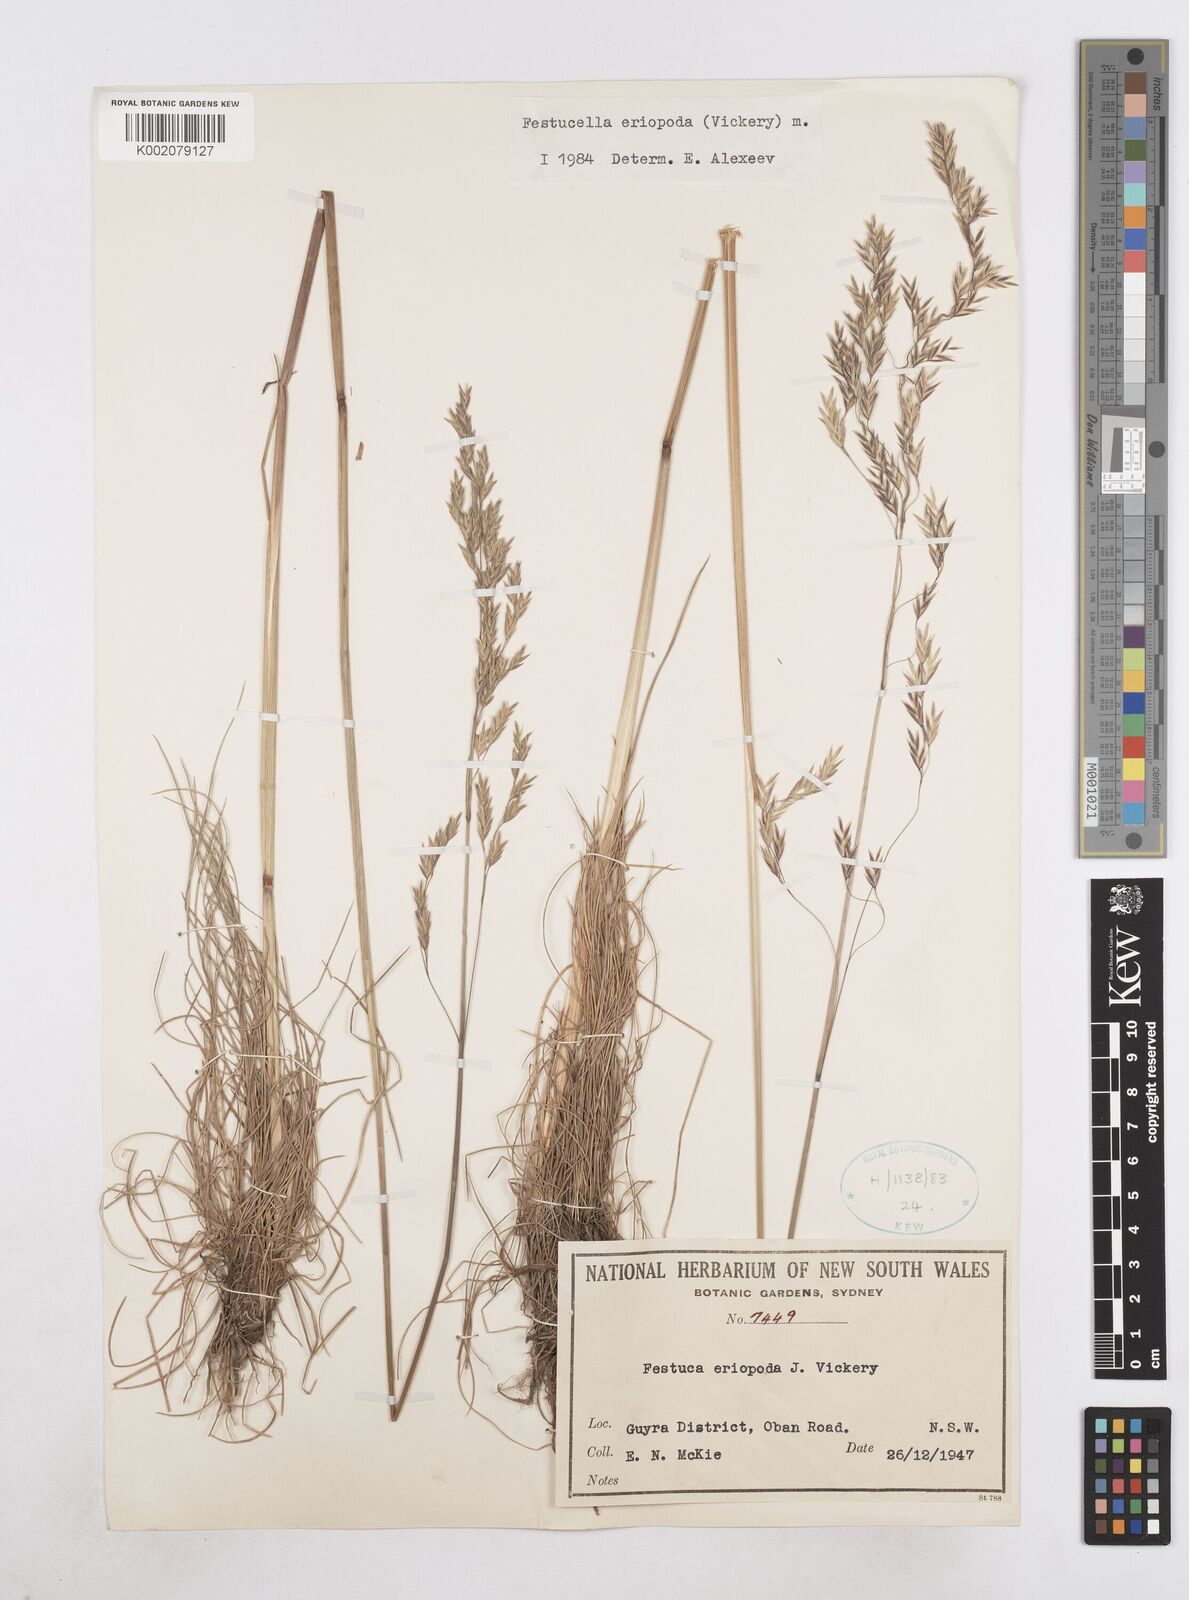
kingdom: Plantae
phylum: Tracheophyta
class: Liliopsida
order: Poales
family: Poaceae
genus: Hookerochloa
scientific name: Hookerochloa eriopoda
